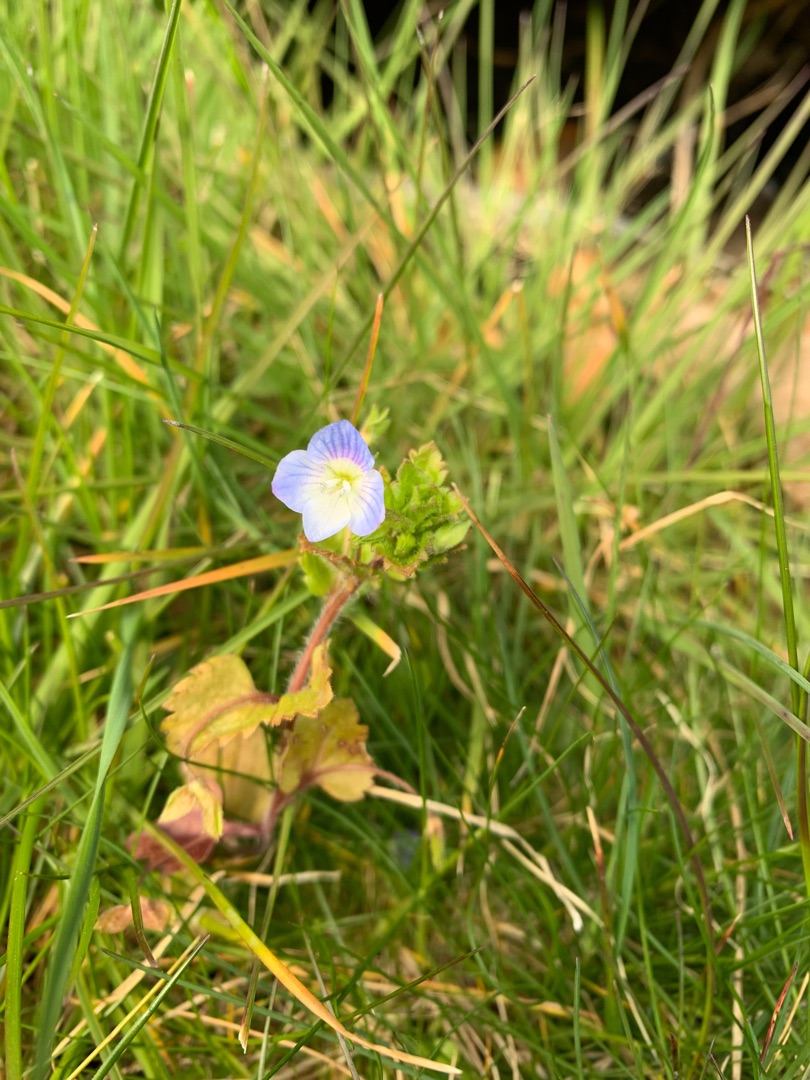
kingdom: Plantae
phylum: Tracheophyta
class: Magnoliopsida
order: Lamiales
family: Plantaginaceae
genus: Veronica
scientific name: Veronica persica
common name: Storkronet ærenpris
